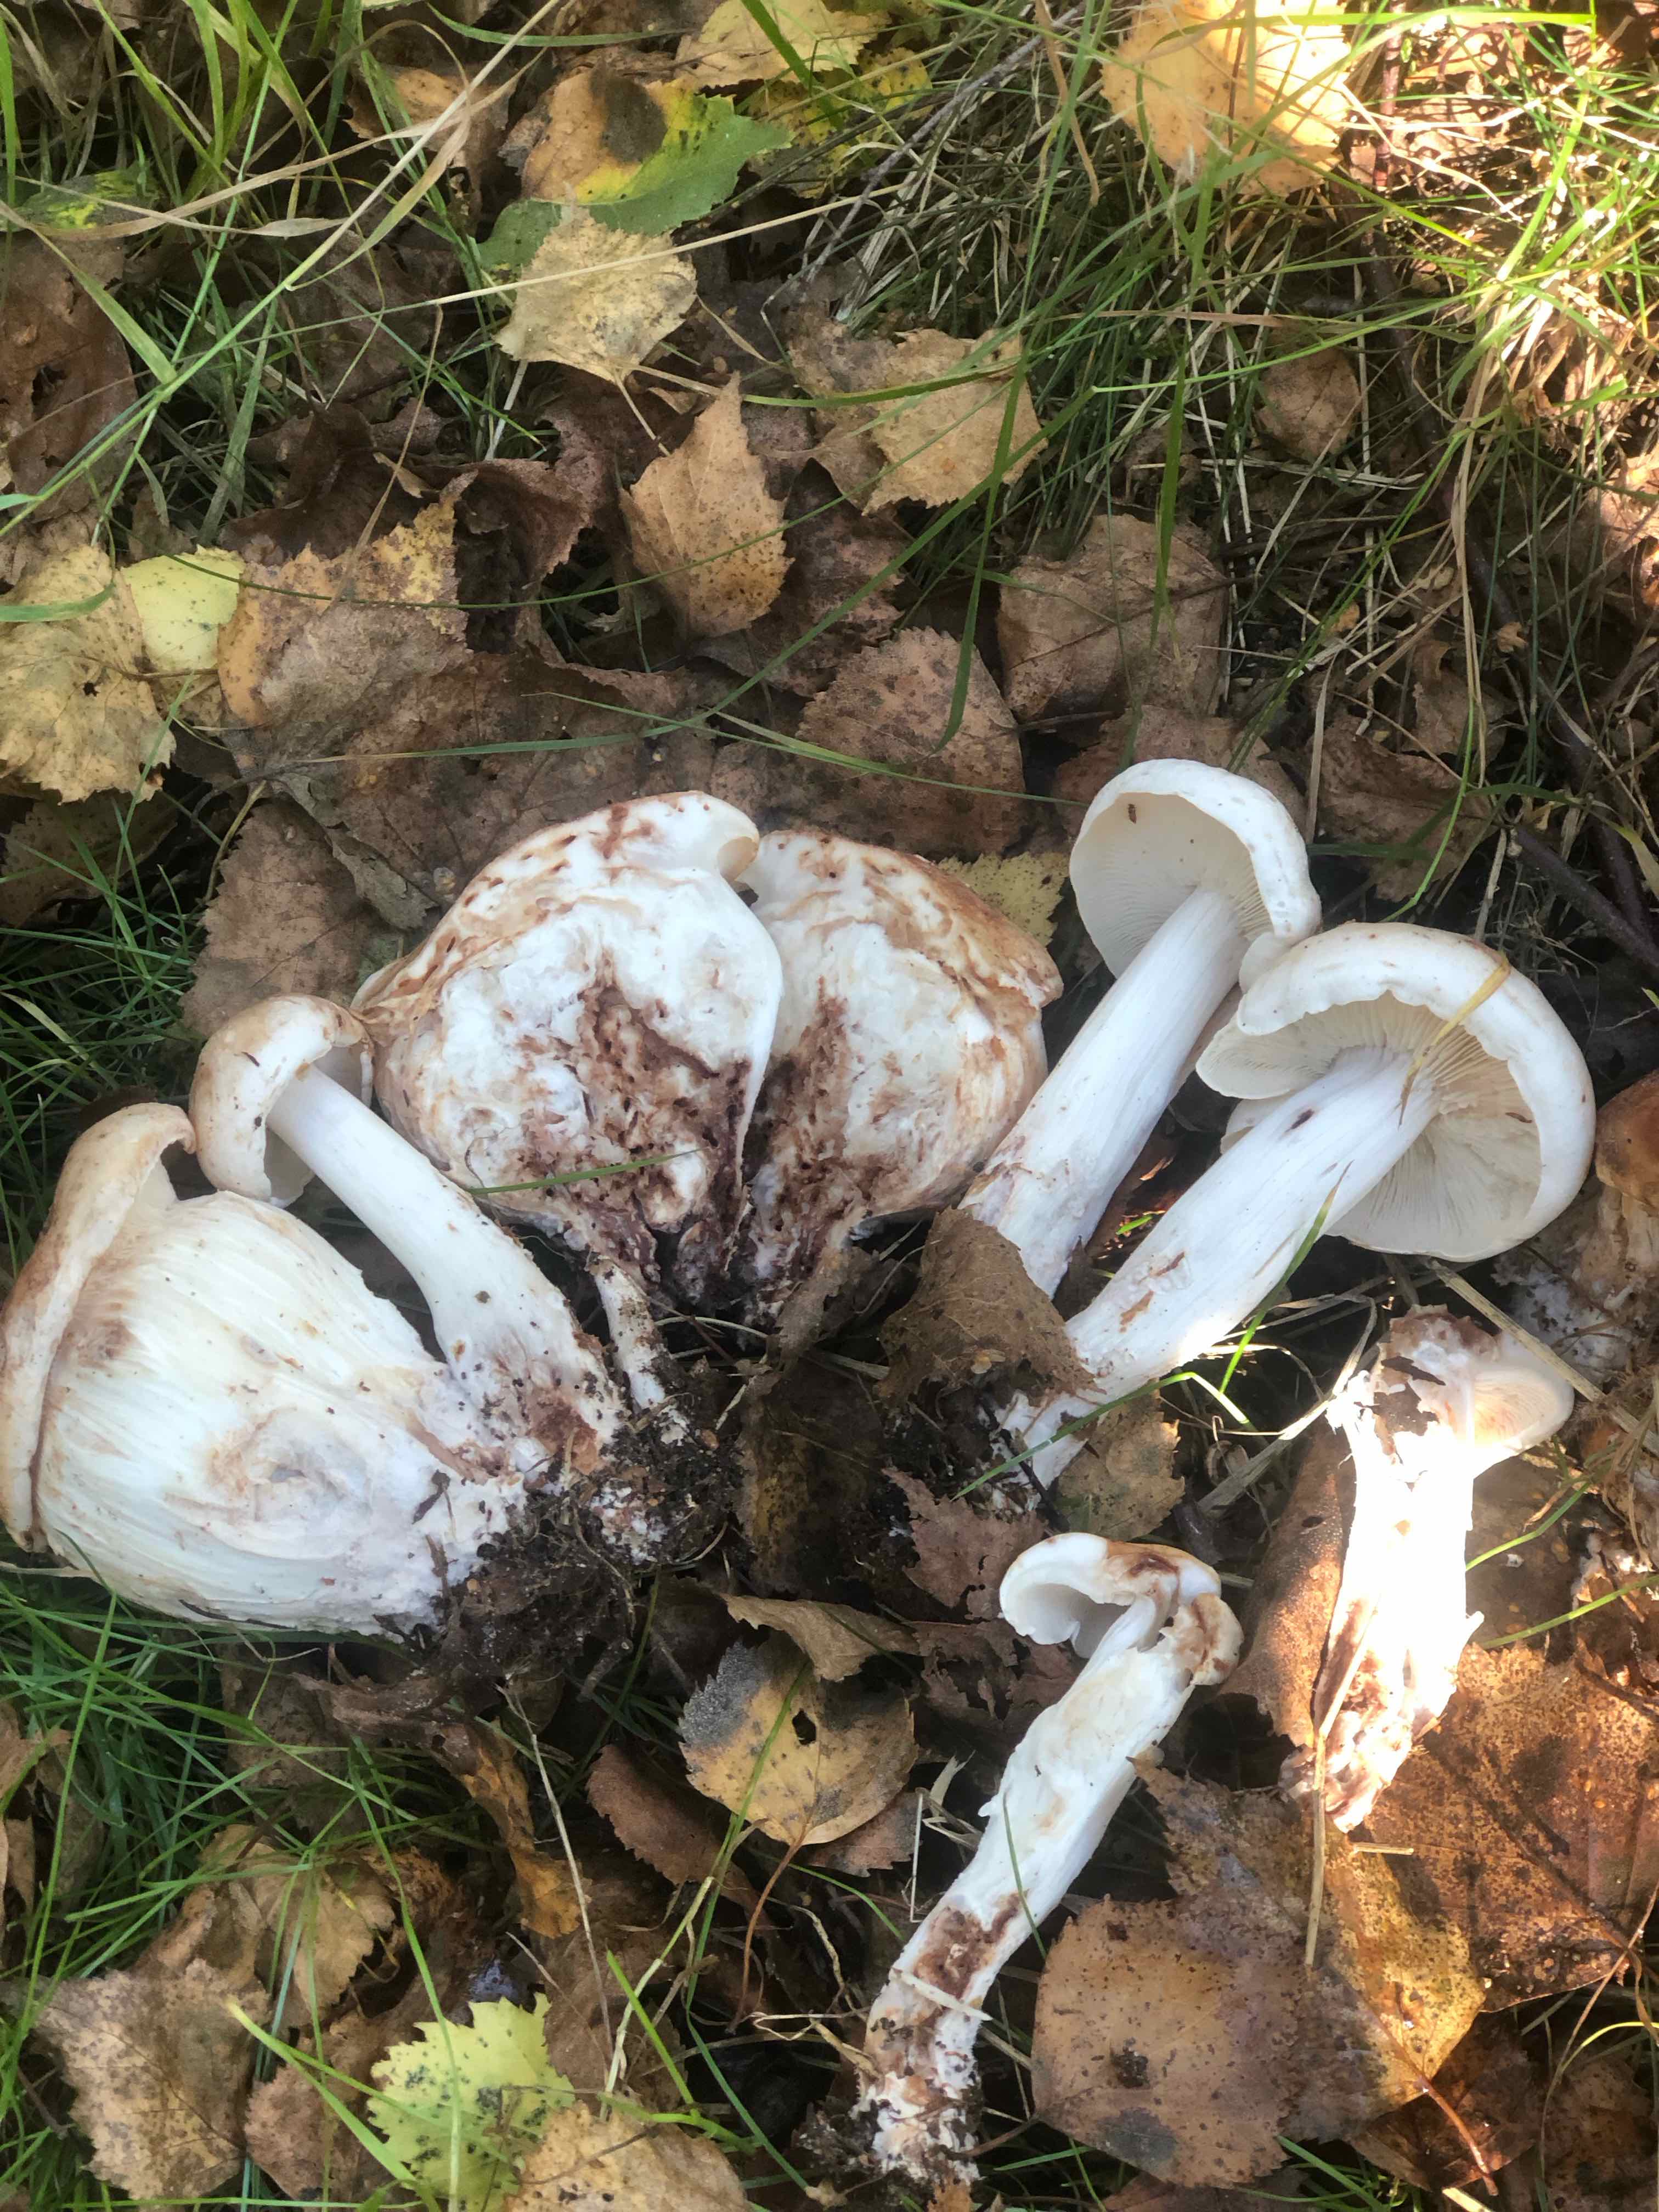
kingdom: Fungi
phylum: Basidiomycota
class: Agaricomycetes
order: Agaricales
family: Omphalotaceae
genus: Rhodocollybia
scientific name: Rhodocollybia maculata
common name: plettet fladhat
